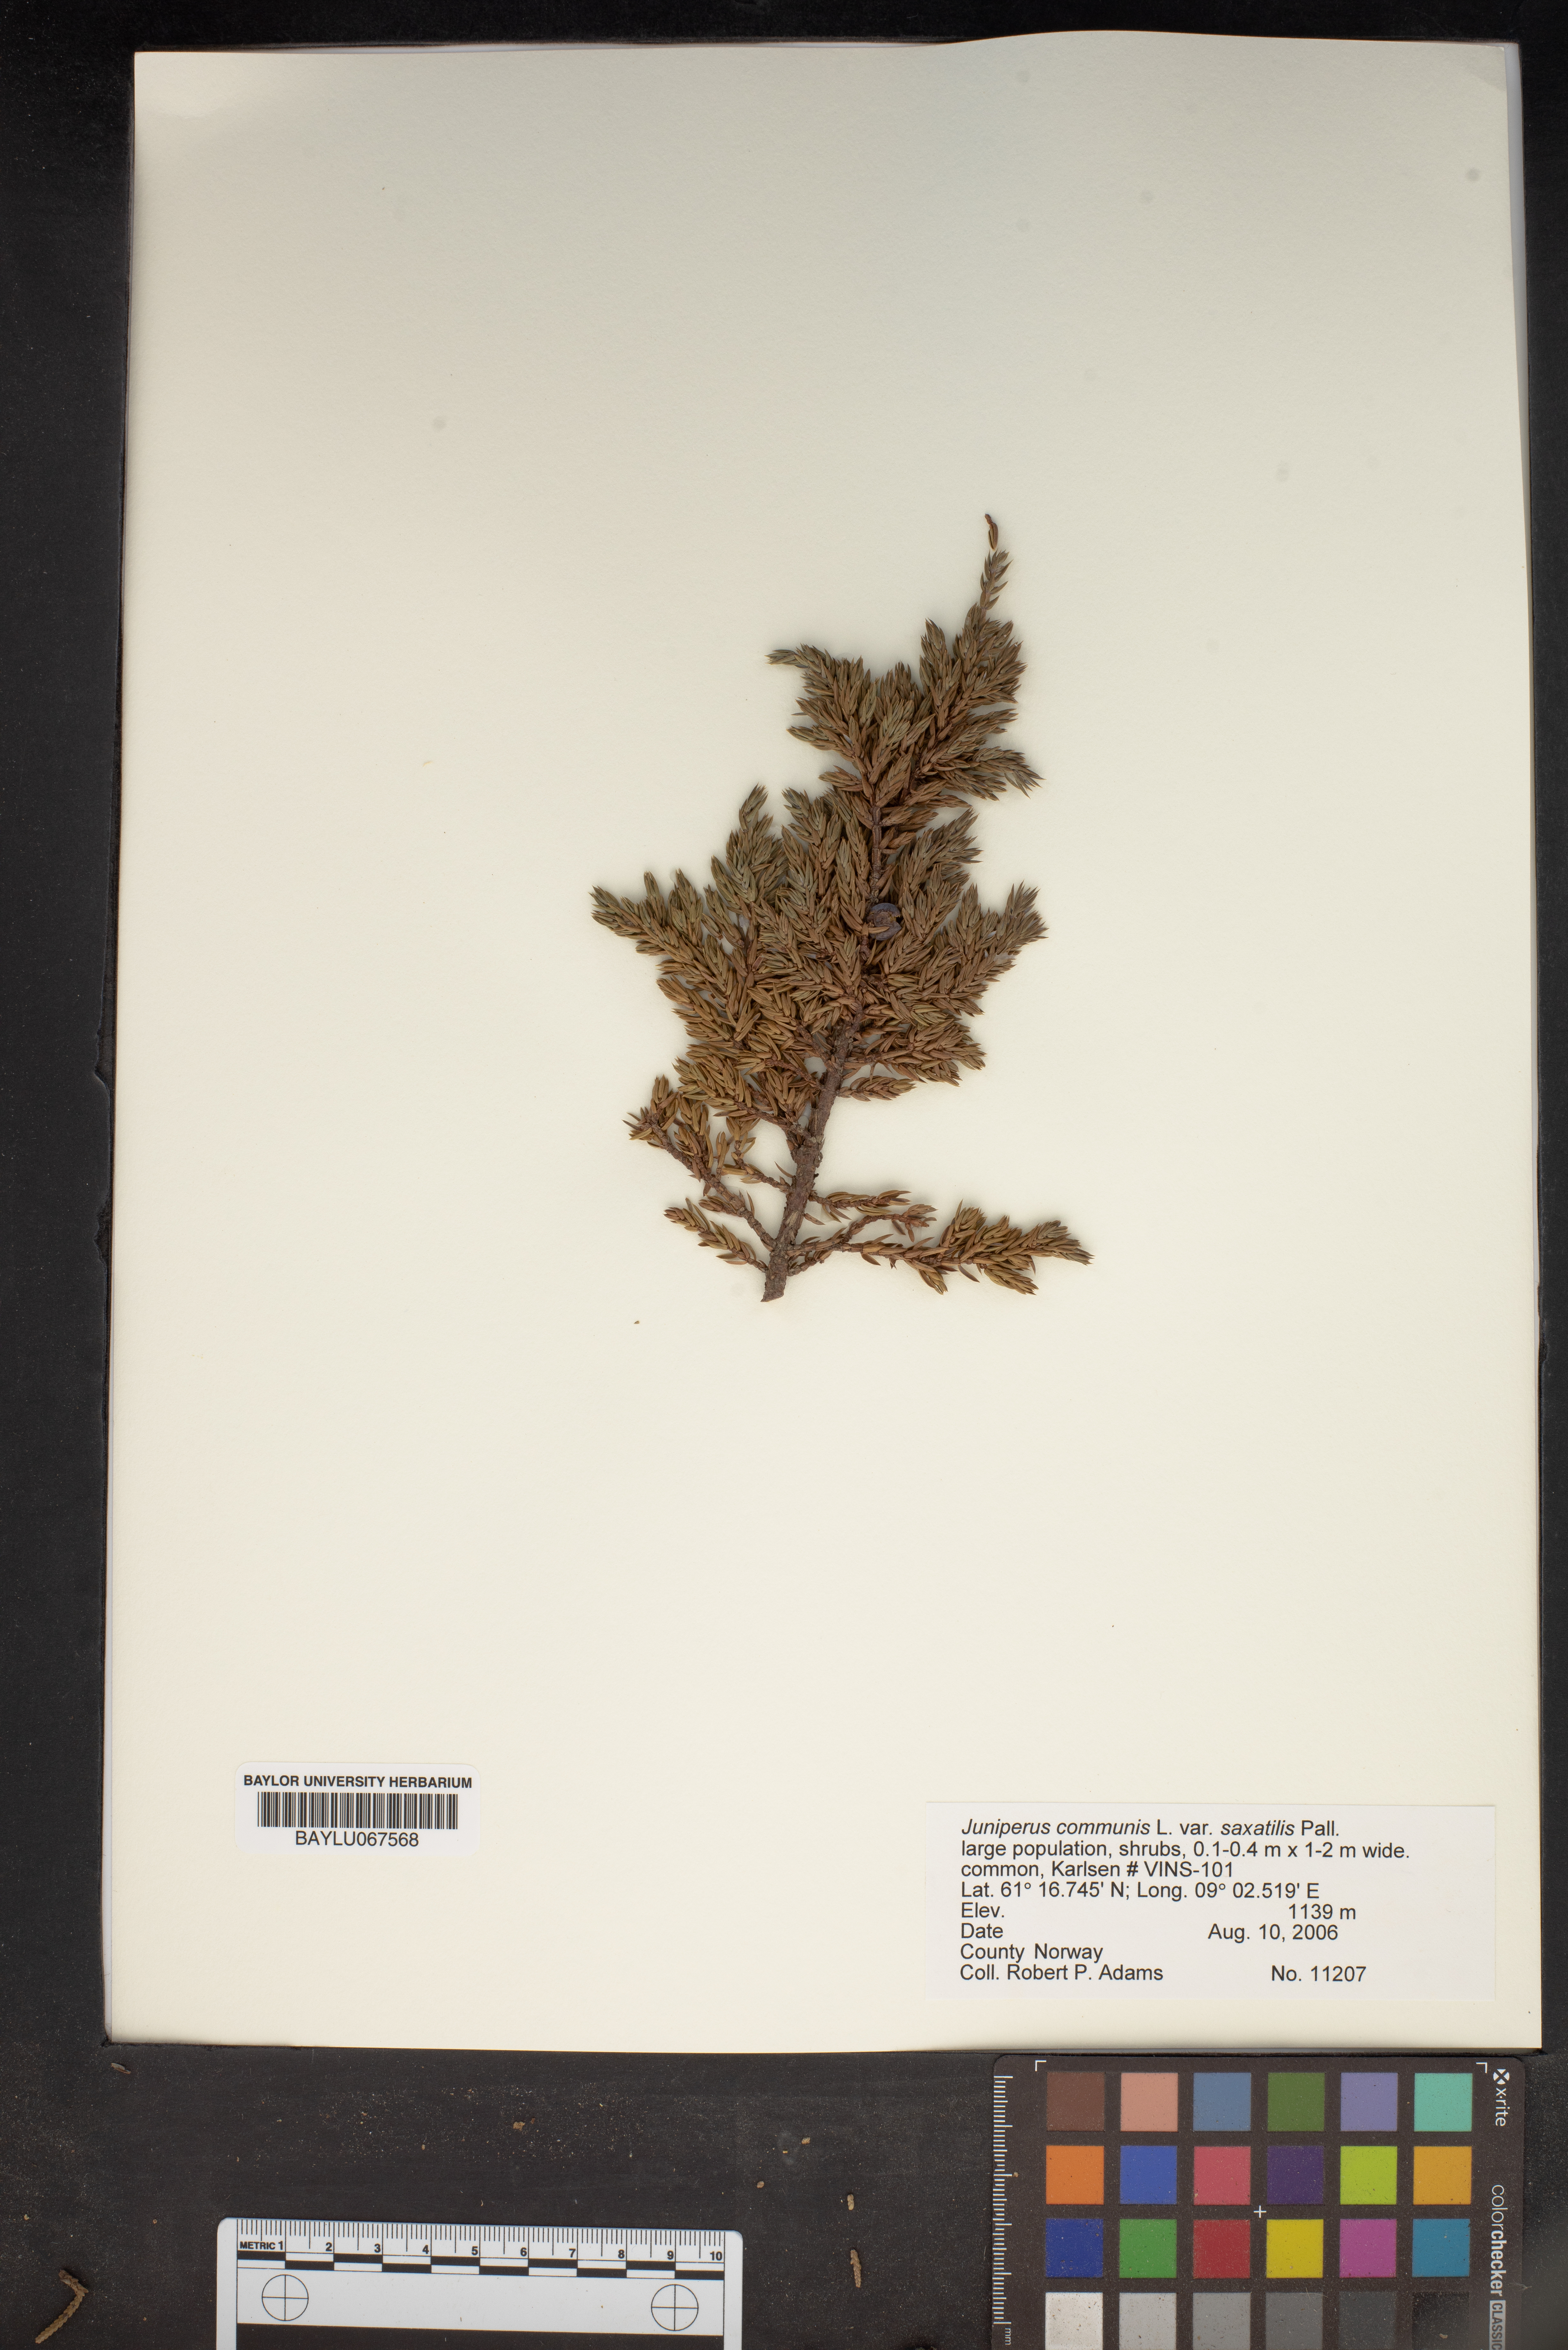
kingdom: Plantae
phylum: Tracheophyta
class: Pinopsida
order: Pinales
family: Cupressaceae
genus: Juniperus
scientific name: Juniperus communis
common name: Common juniper
